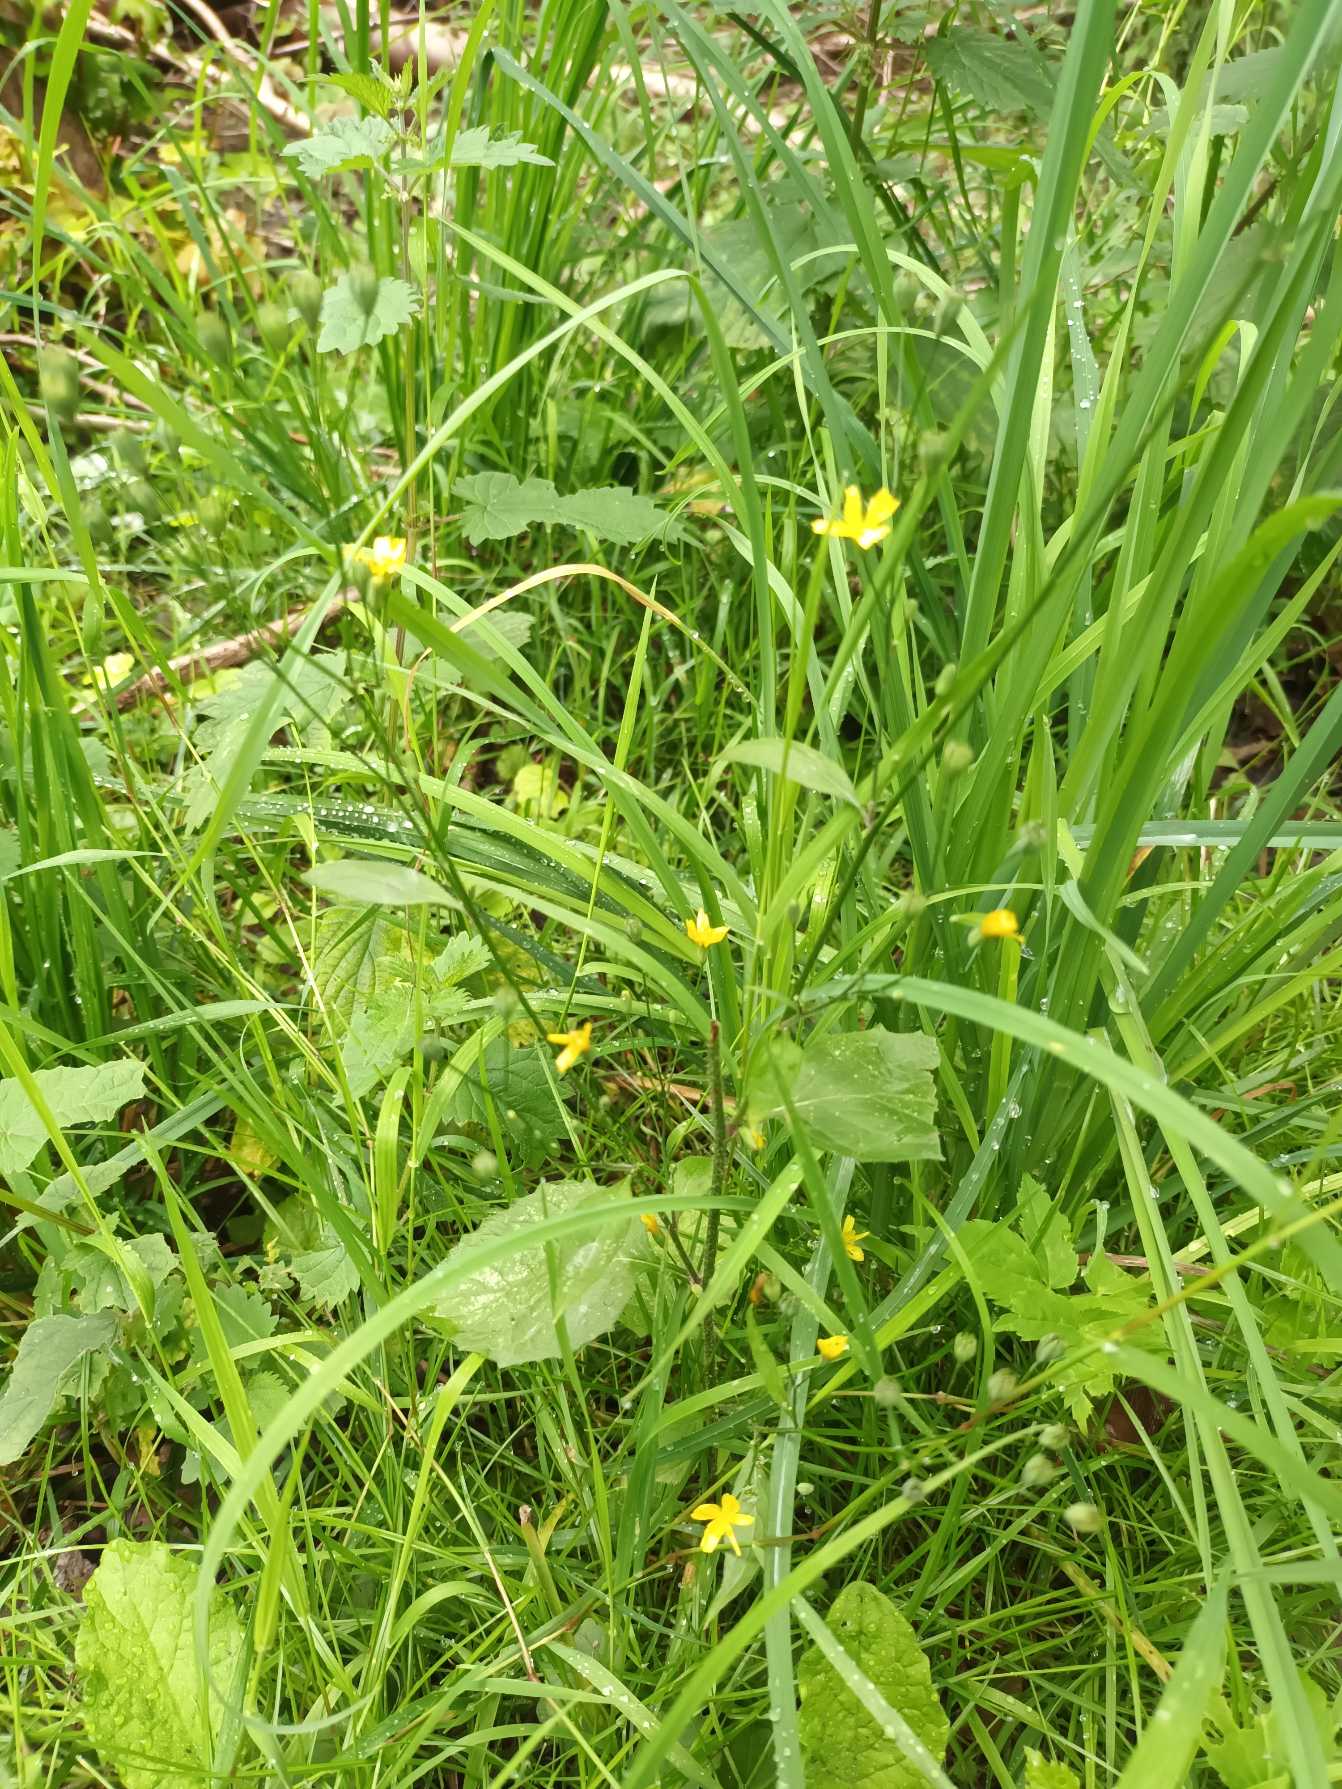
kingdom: Plantae
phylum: Tracheophyta
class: Magnoliopsida
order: Asterales
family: Asteraceae
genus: Lapsana
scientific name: Lapsana communis
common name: Haremad
